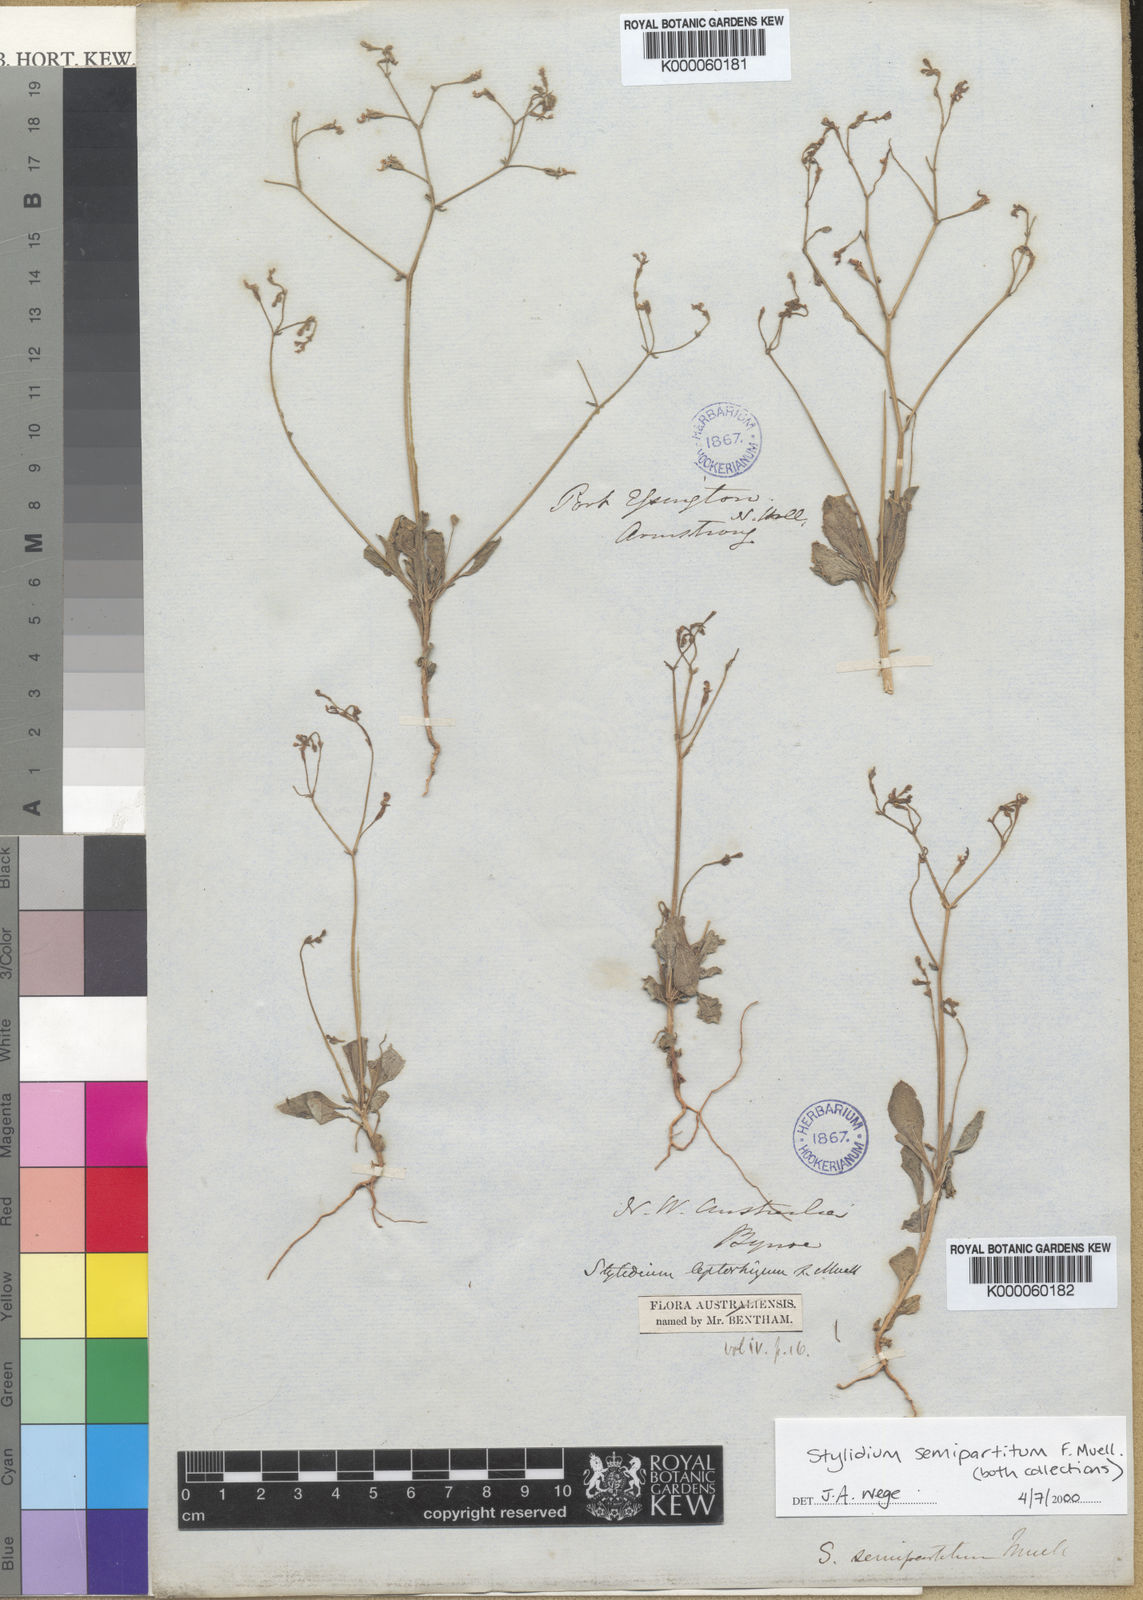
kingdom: Plantae
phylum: Tracheophyta
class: Magnoliopsida
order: Asterales
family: Stylidiaceae
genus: Stylidium
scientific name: Stylidium semipartitum
